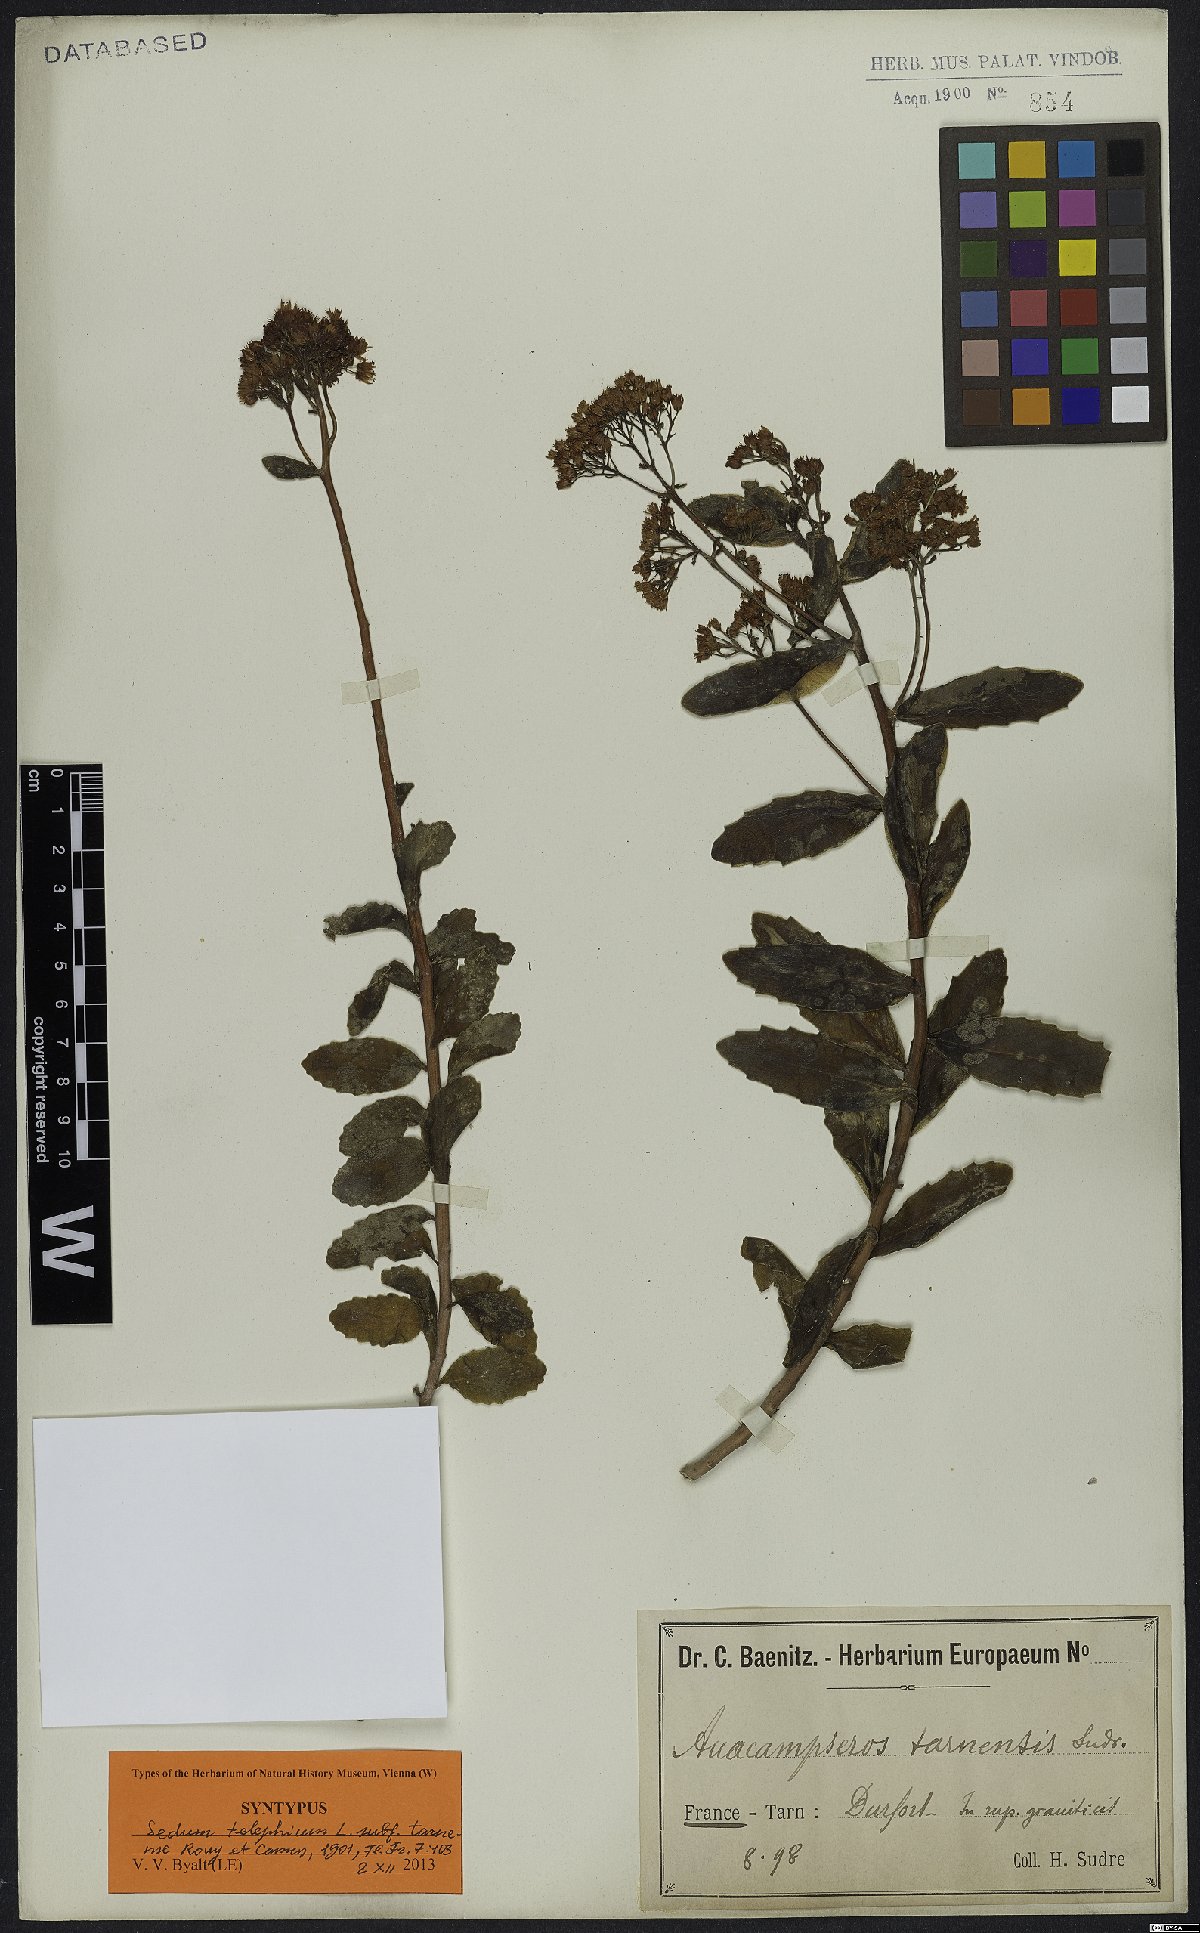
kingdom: Plantae
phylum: Tracheophyta
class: Magnoliopsida
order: Saxifragales
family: Crassulaceae
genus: Hylotelephium
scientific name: Hylotelephium telephium
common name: Live-forever
